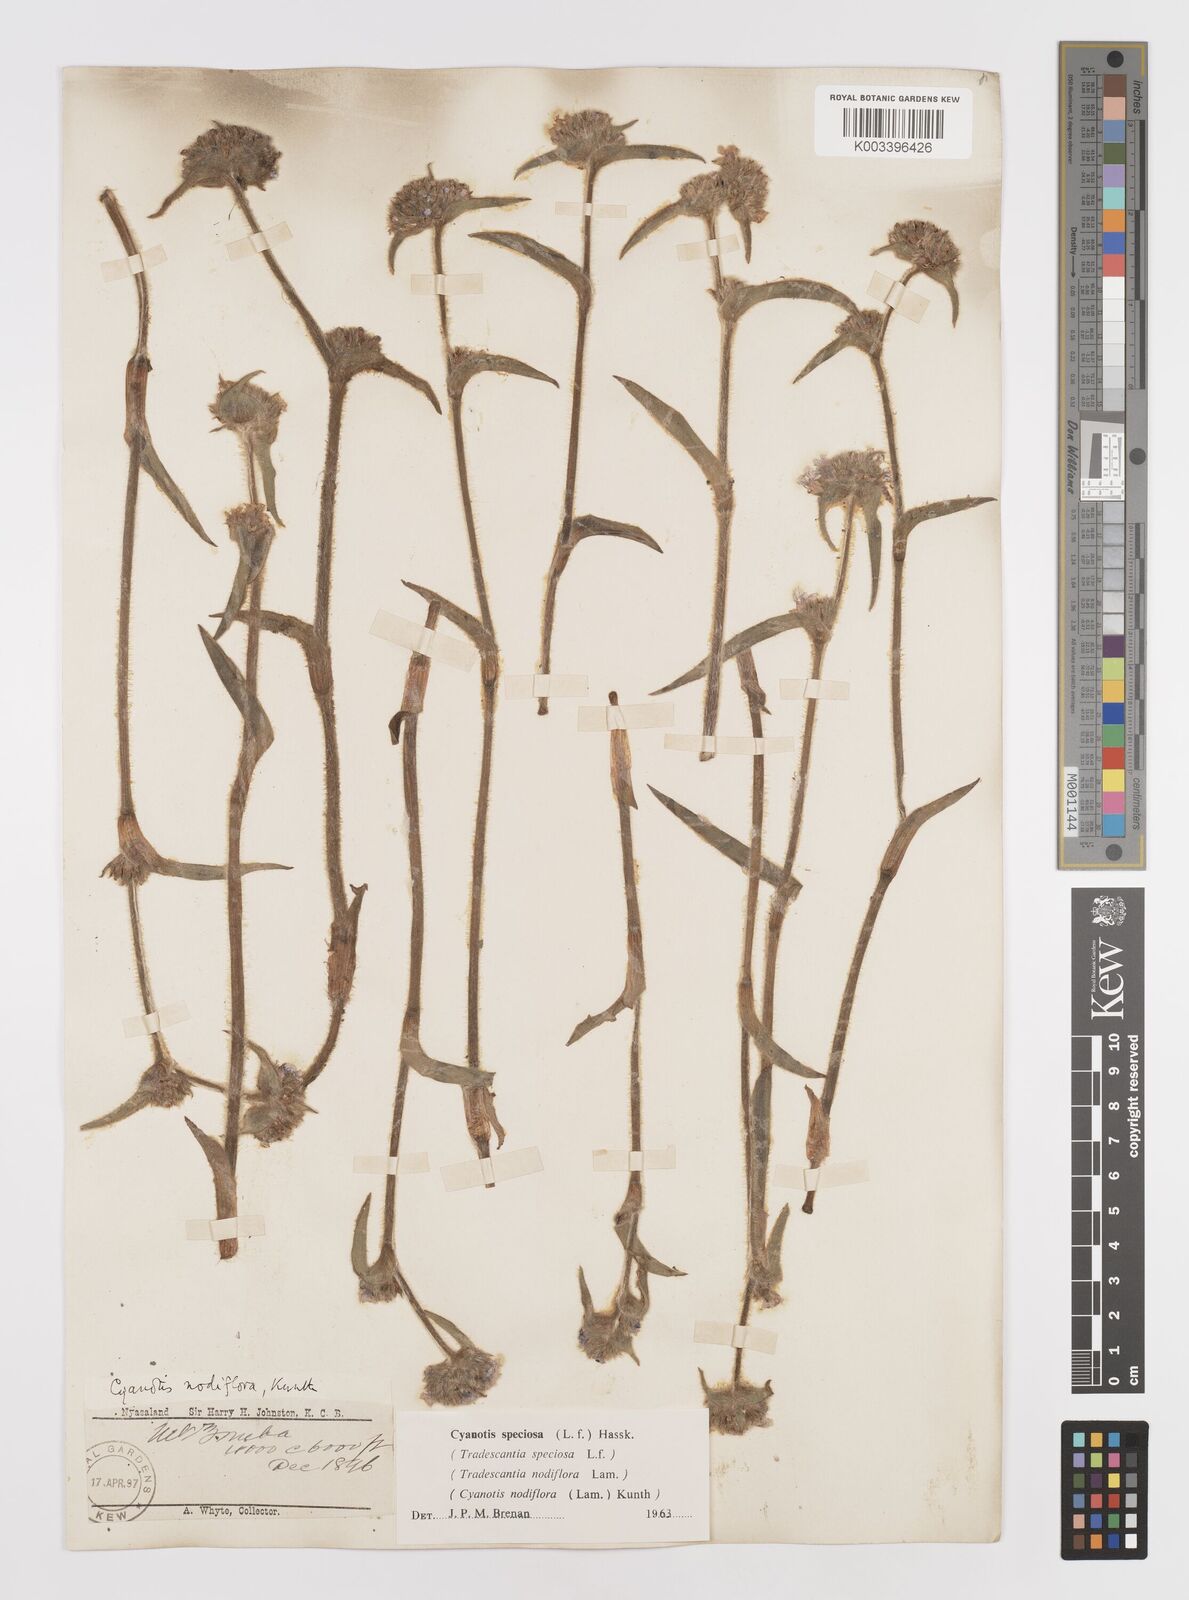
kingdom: Plantae
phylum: Tracheophyta
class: Liliopsida
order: Commelinales
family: Commelinaceae
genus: Cyanotis
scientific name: Cyanotis speciosa
